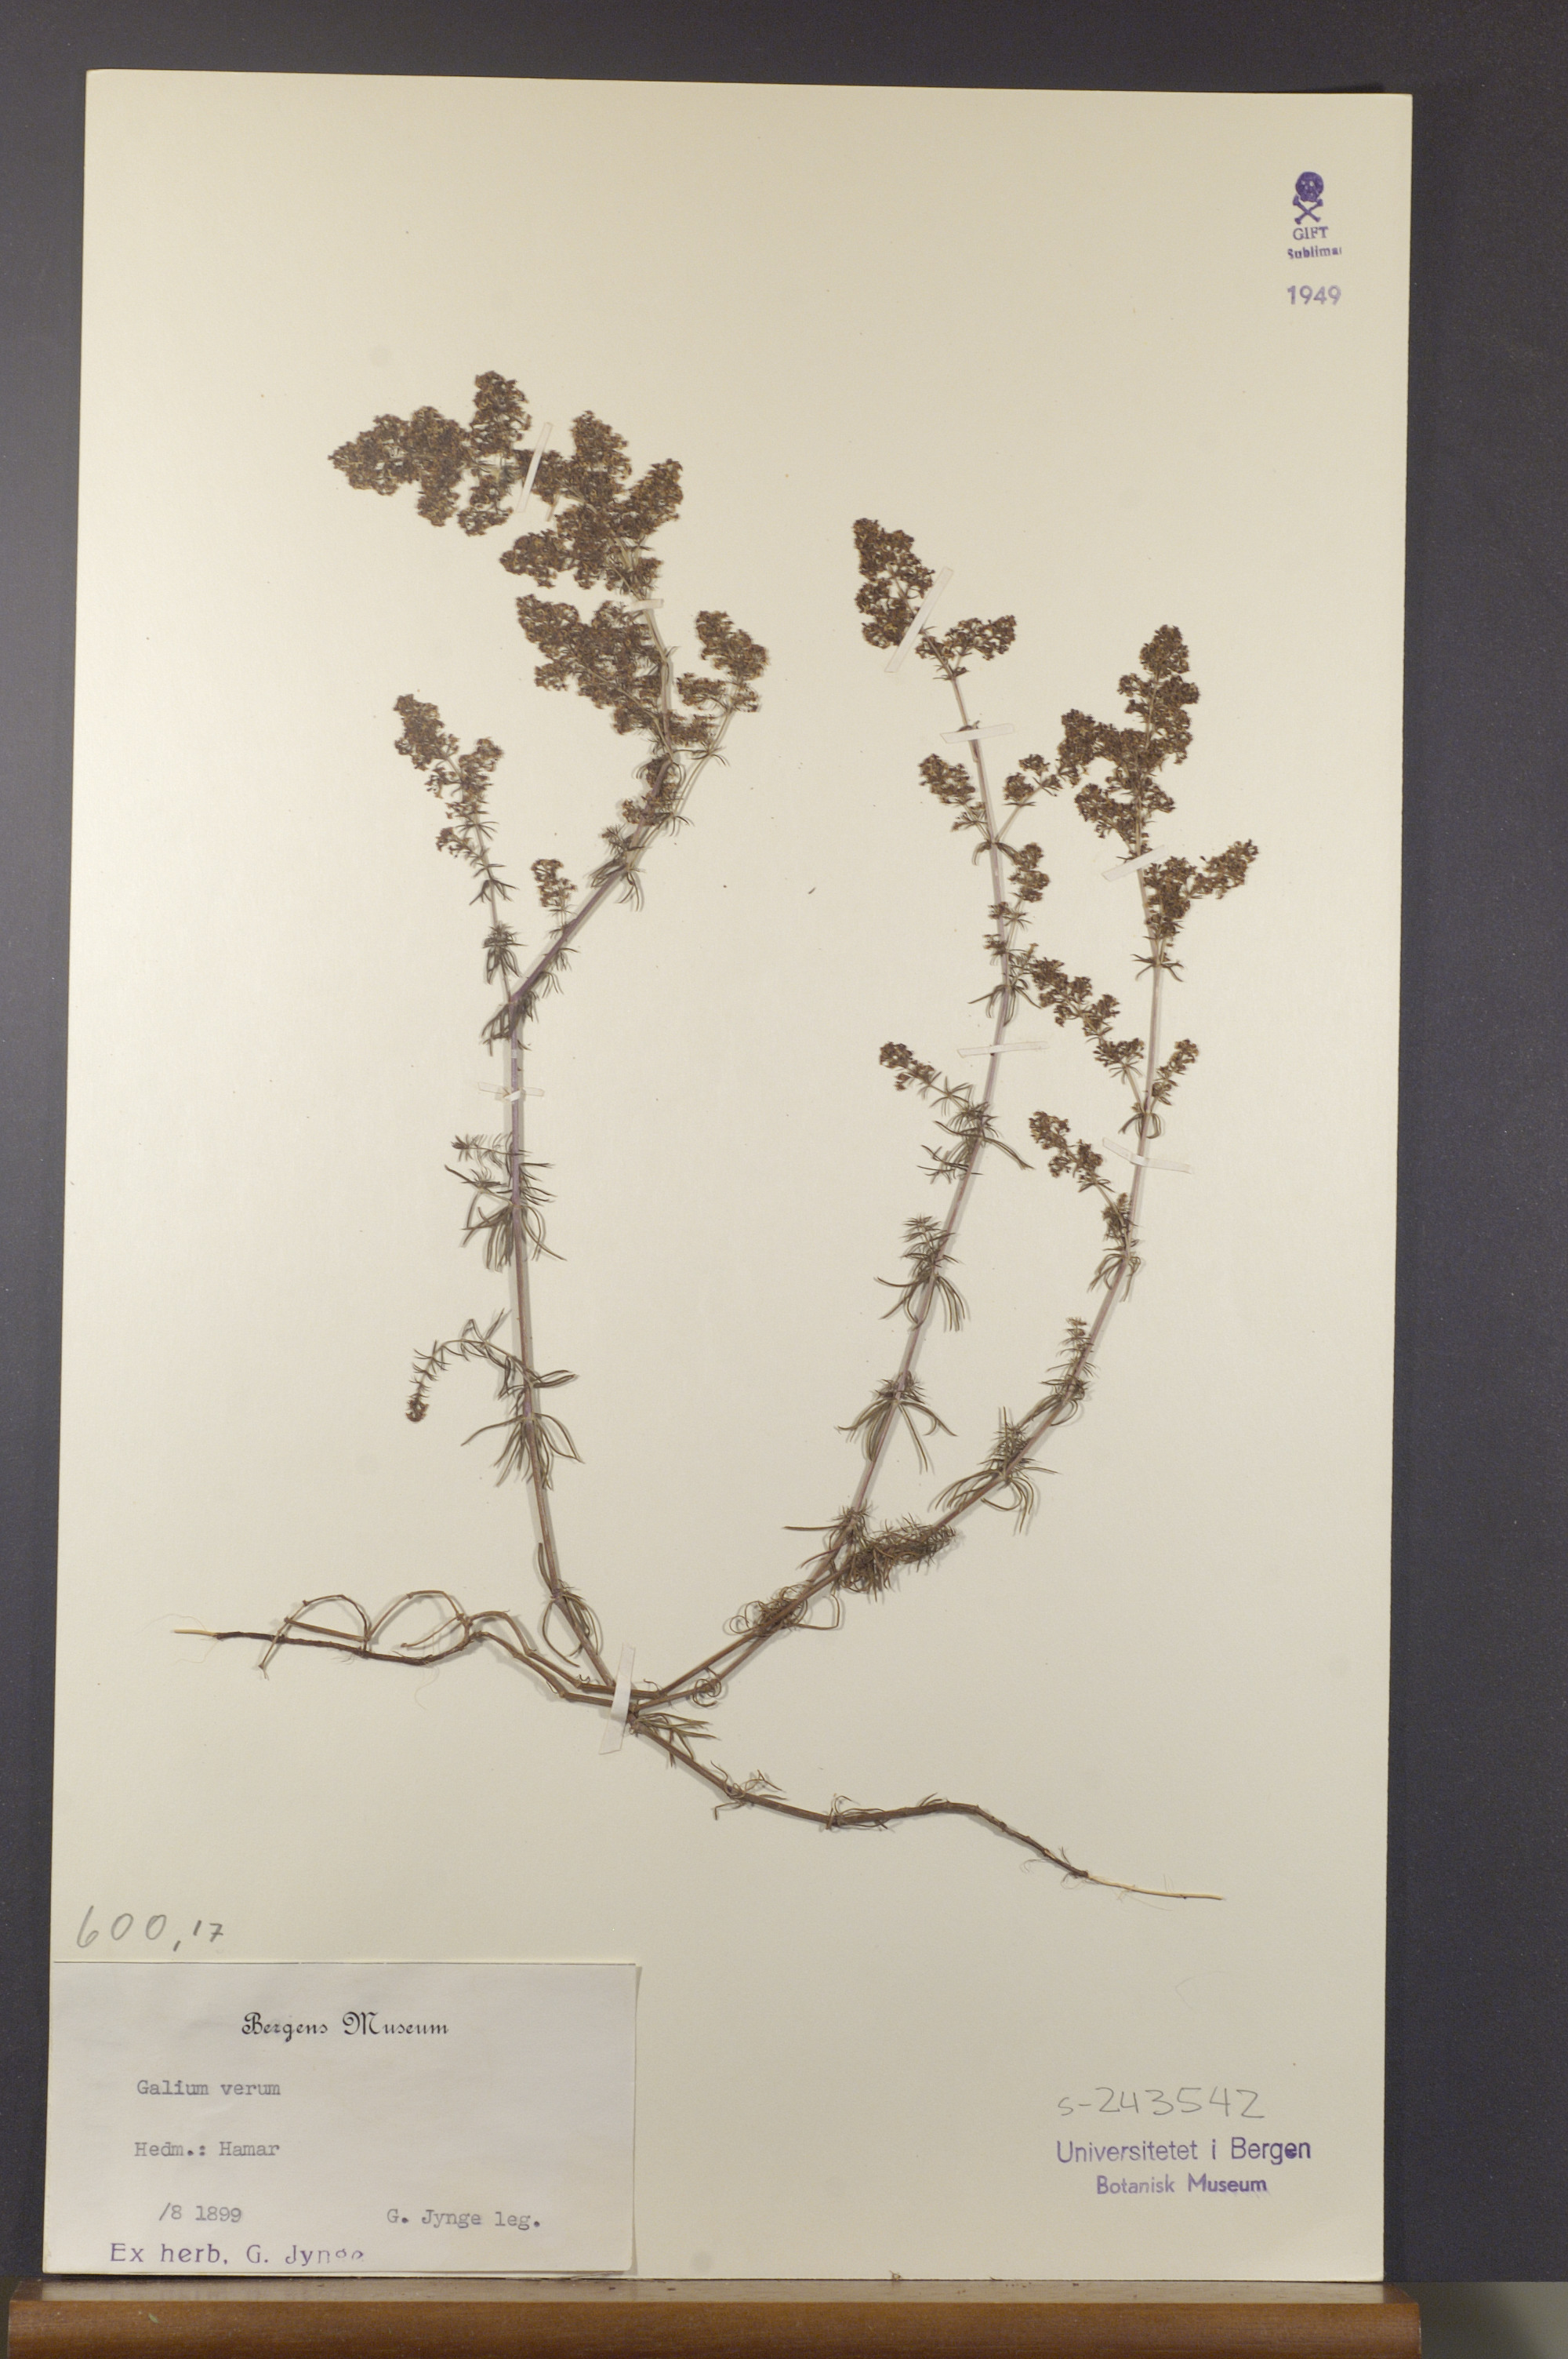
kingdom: Plantae
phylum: Tracheophyta
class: Magnoliopsida
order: Gentianales
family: Rubiaceae
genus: Galium
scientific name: Galium verum
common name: Lady's bedstraw
